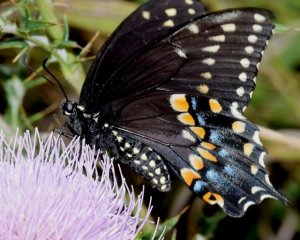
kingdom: Animalia
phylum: Arthropoda
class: Insecta
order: Lepidoptera
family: Papilionidae
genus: Papilio
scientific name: Papilio polyxenes
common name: Black Swallowtail
